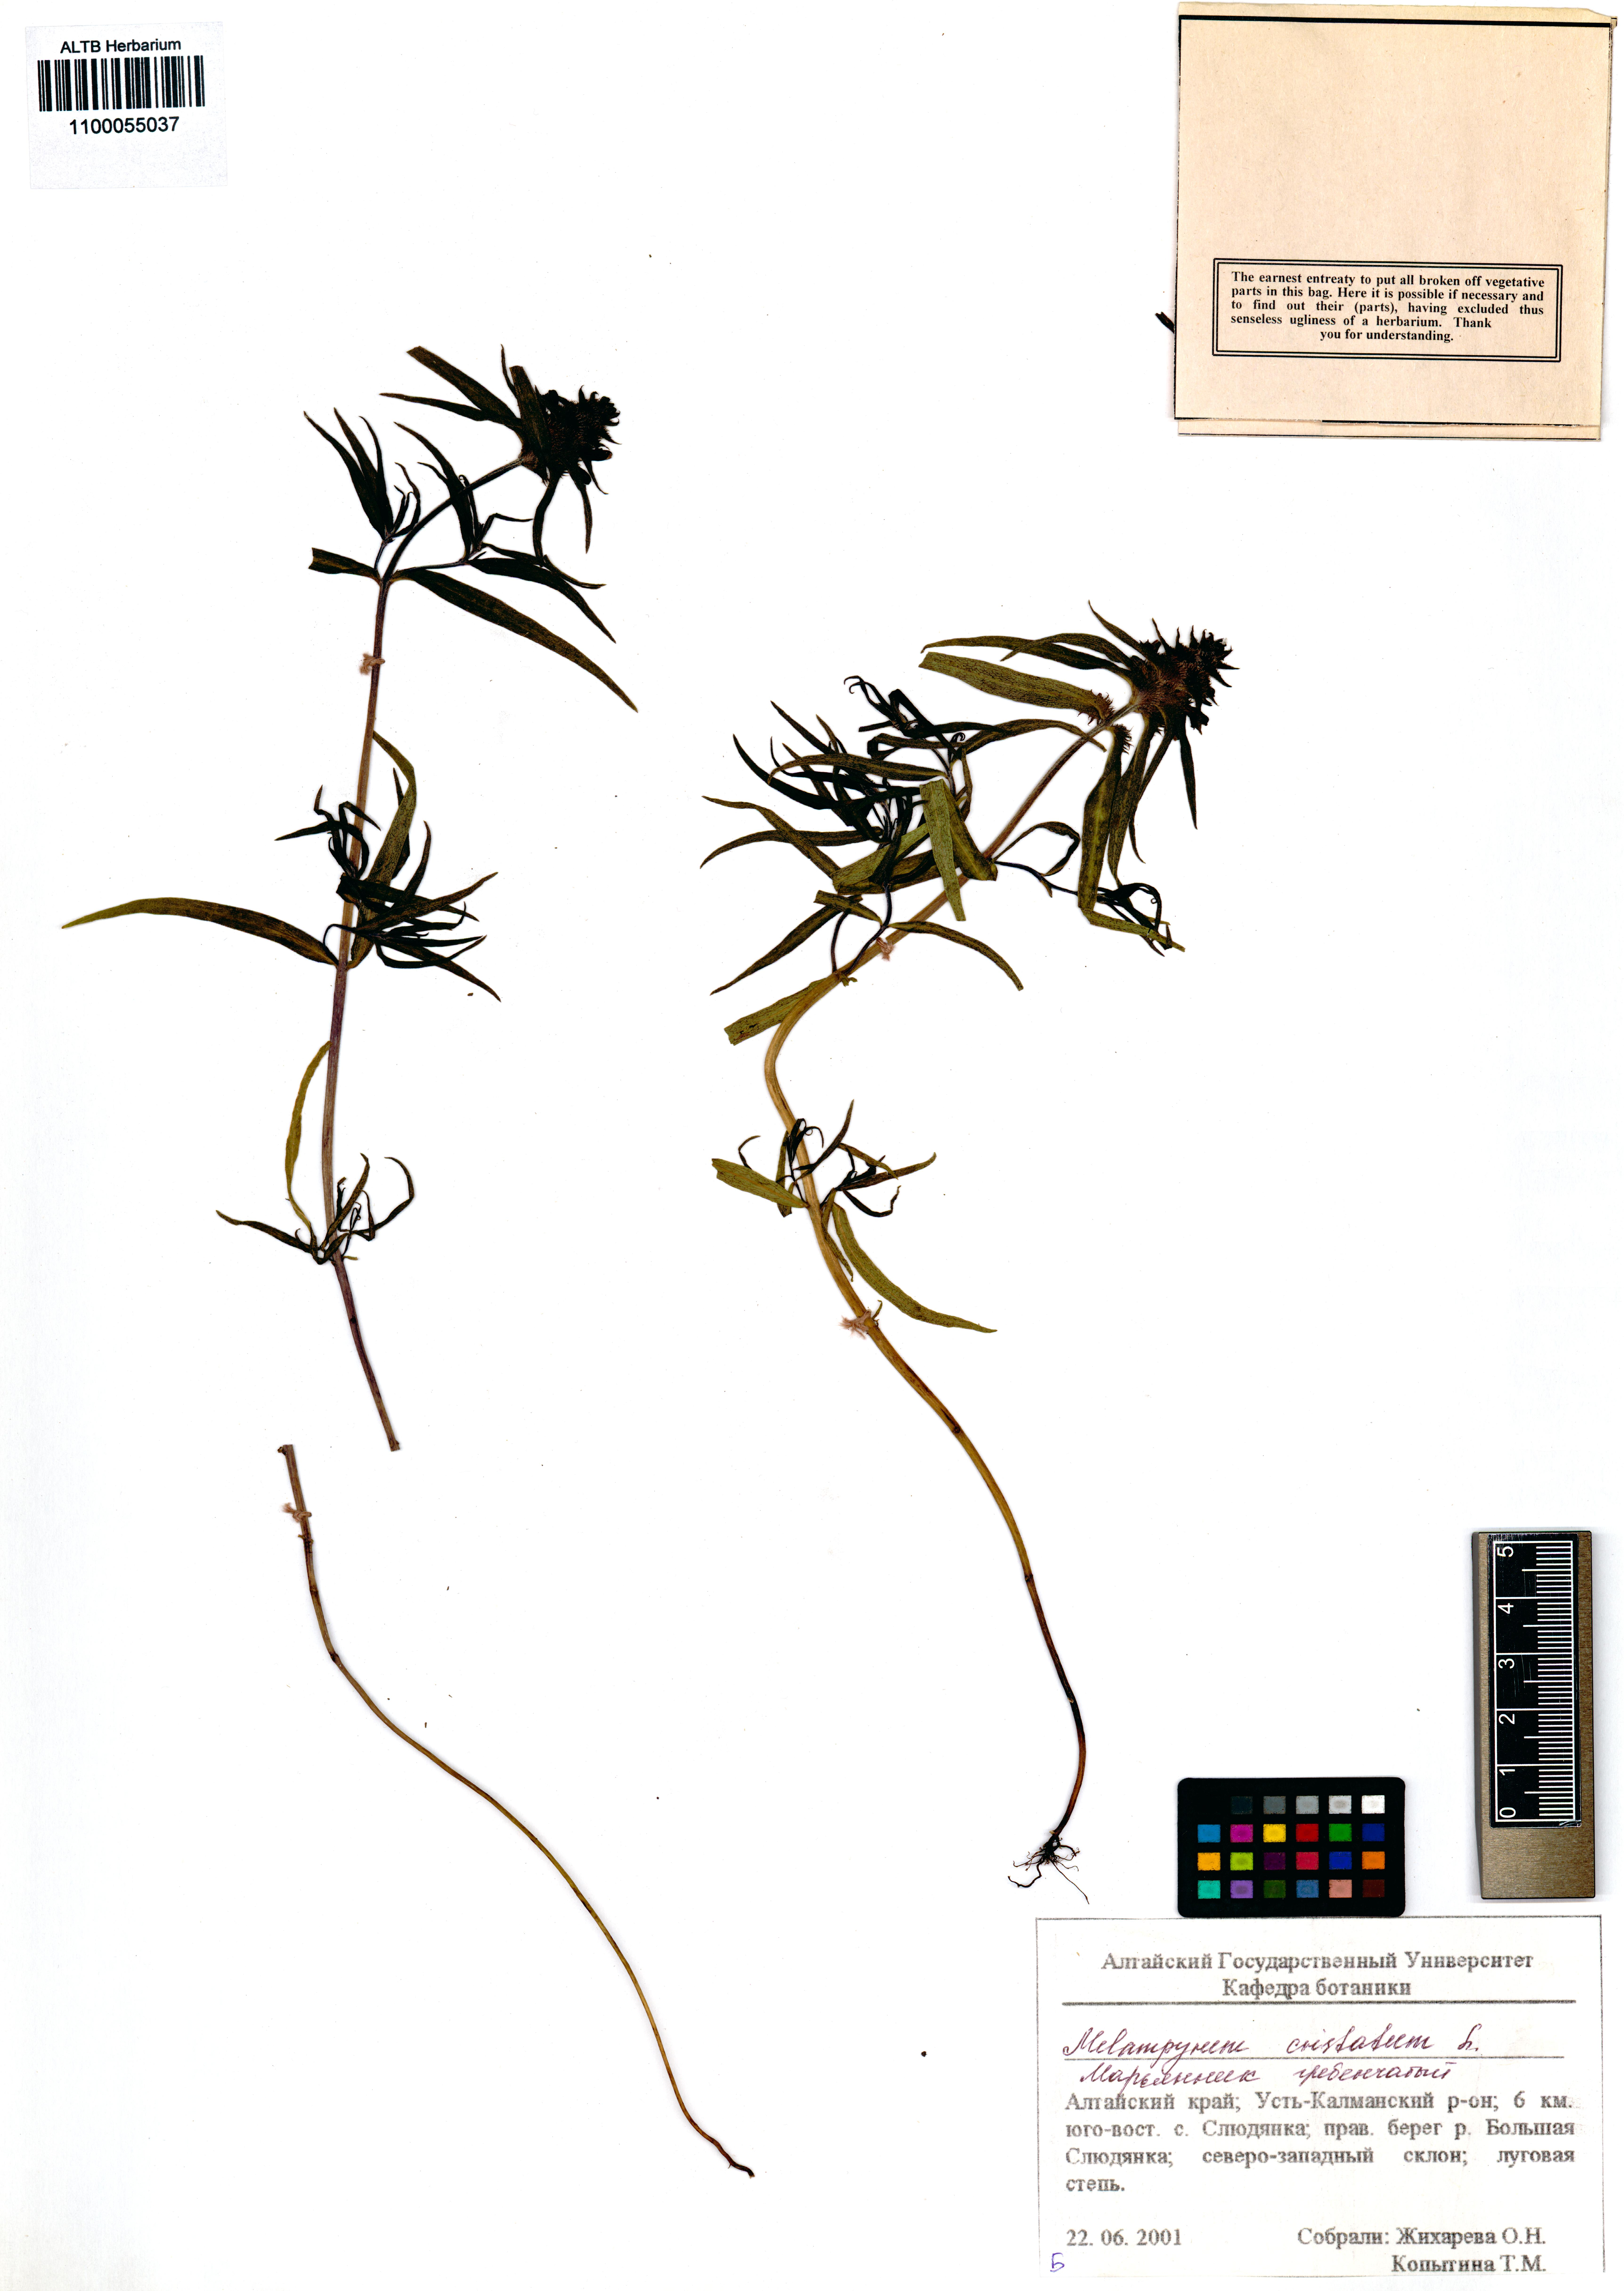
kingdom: Plantae
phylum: Tracheophyta
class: Magnoliopsida
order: Lamiales
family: Orobanchaceae
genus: Melampyrum
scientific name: Melampyrum cristatum
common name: Crested cow-wheat
